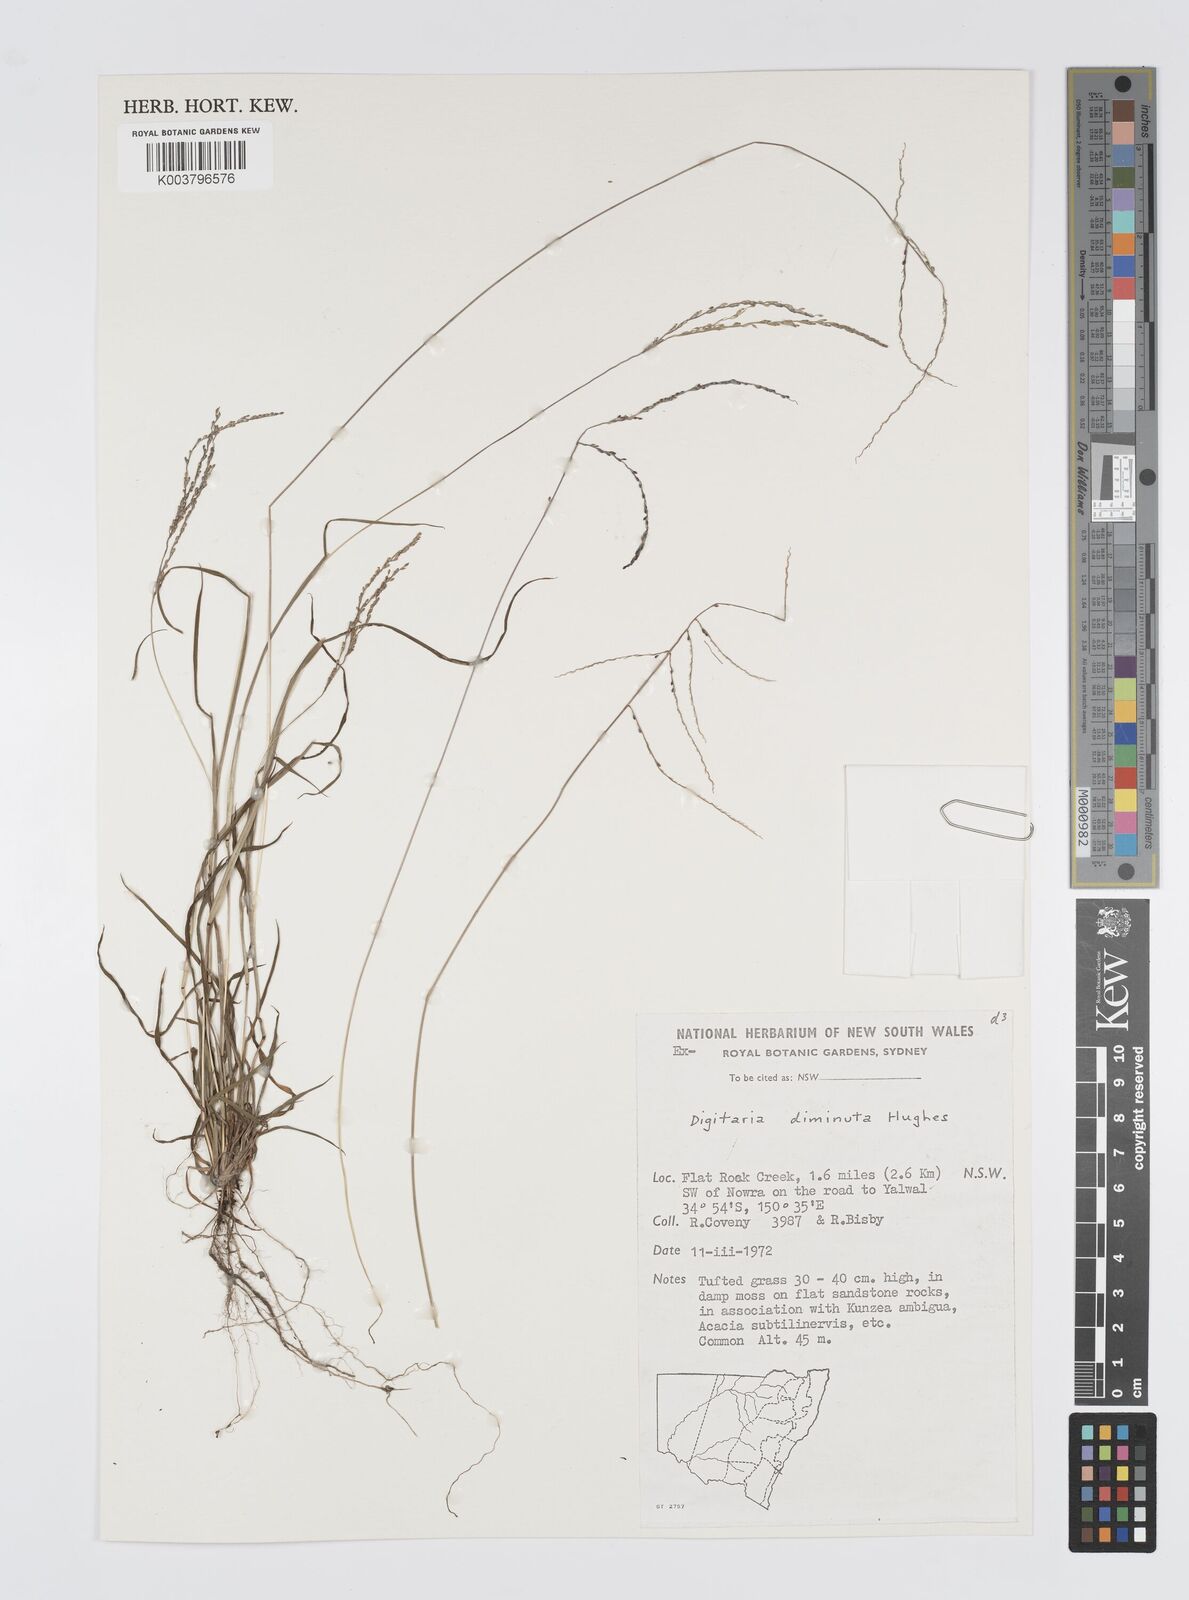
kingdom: Plantae
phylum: Tracheophyta
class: Liliopsida
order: Poales
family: Poaceae
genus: Digitaria
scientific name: Digitaria breviglumis
